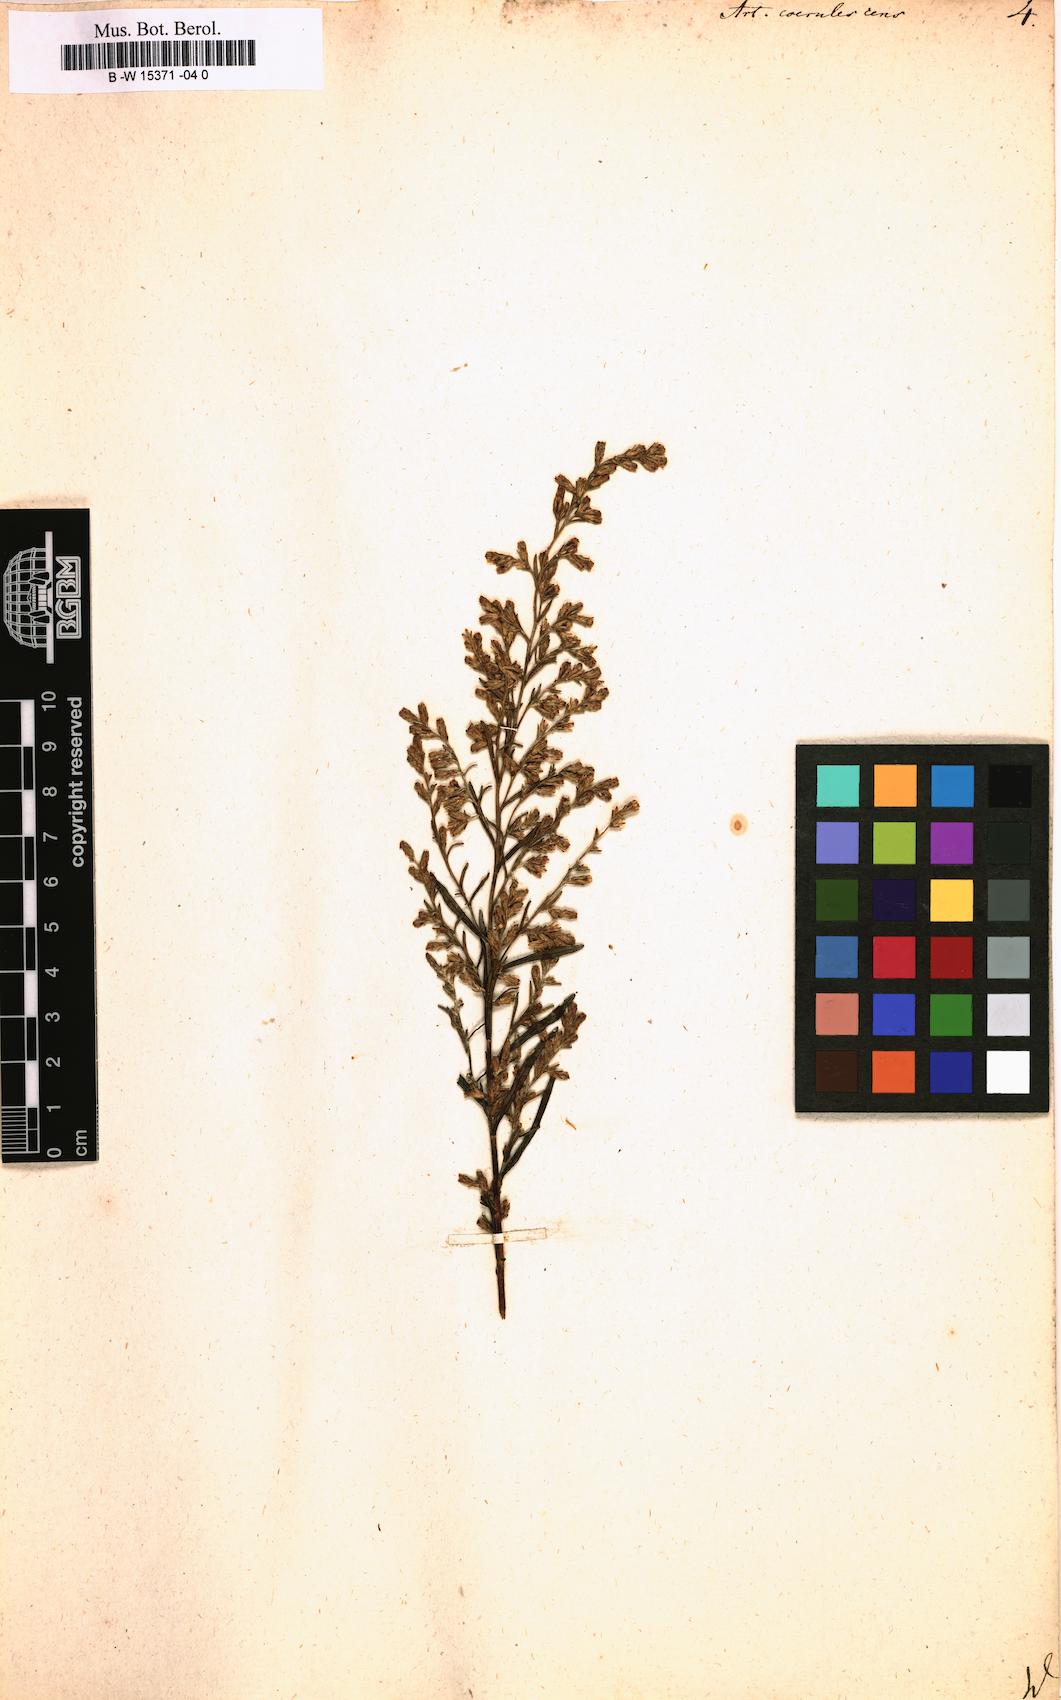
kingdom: Plantae
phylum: Tracheophyta
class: Magnoliopsida
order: Asterales
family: Asteraceae
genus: Artemisia
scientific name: Artemisia caerulescens
